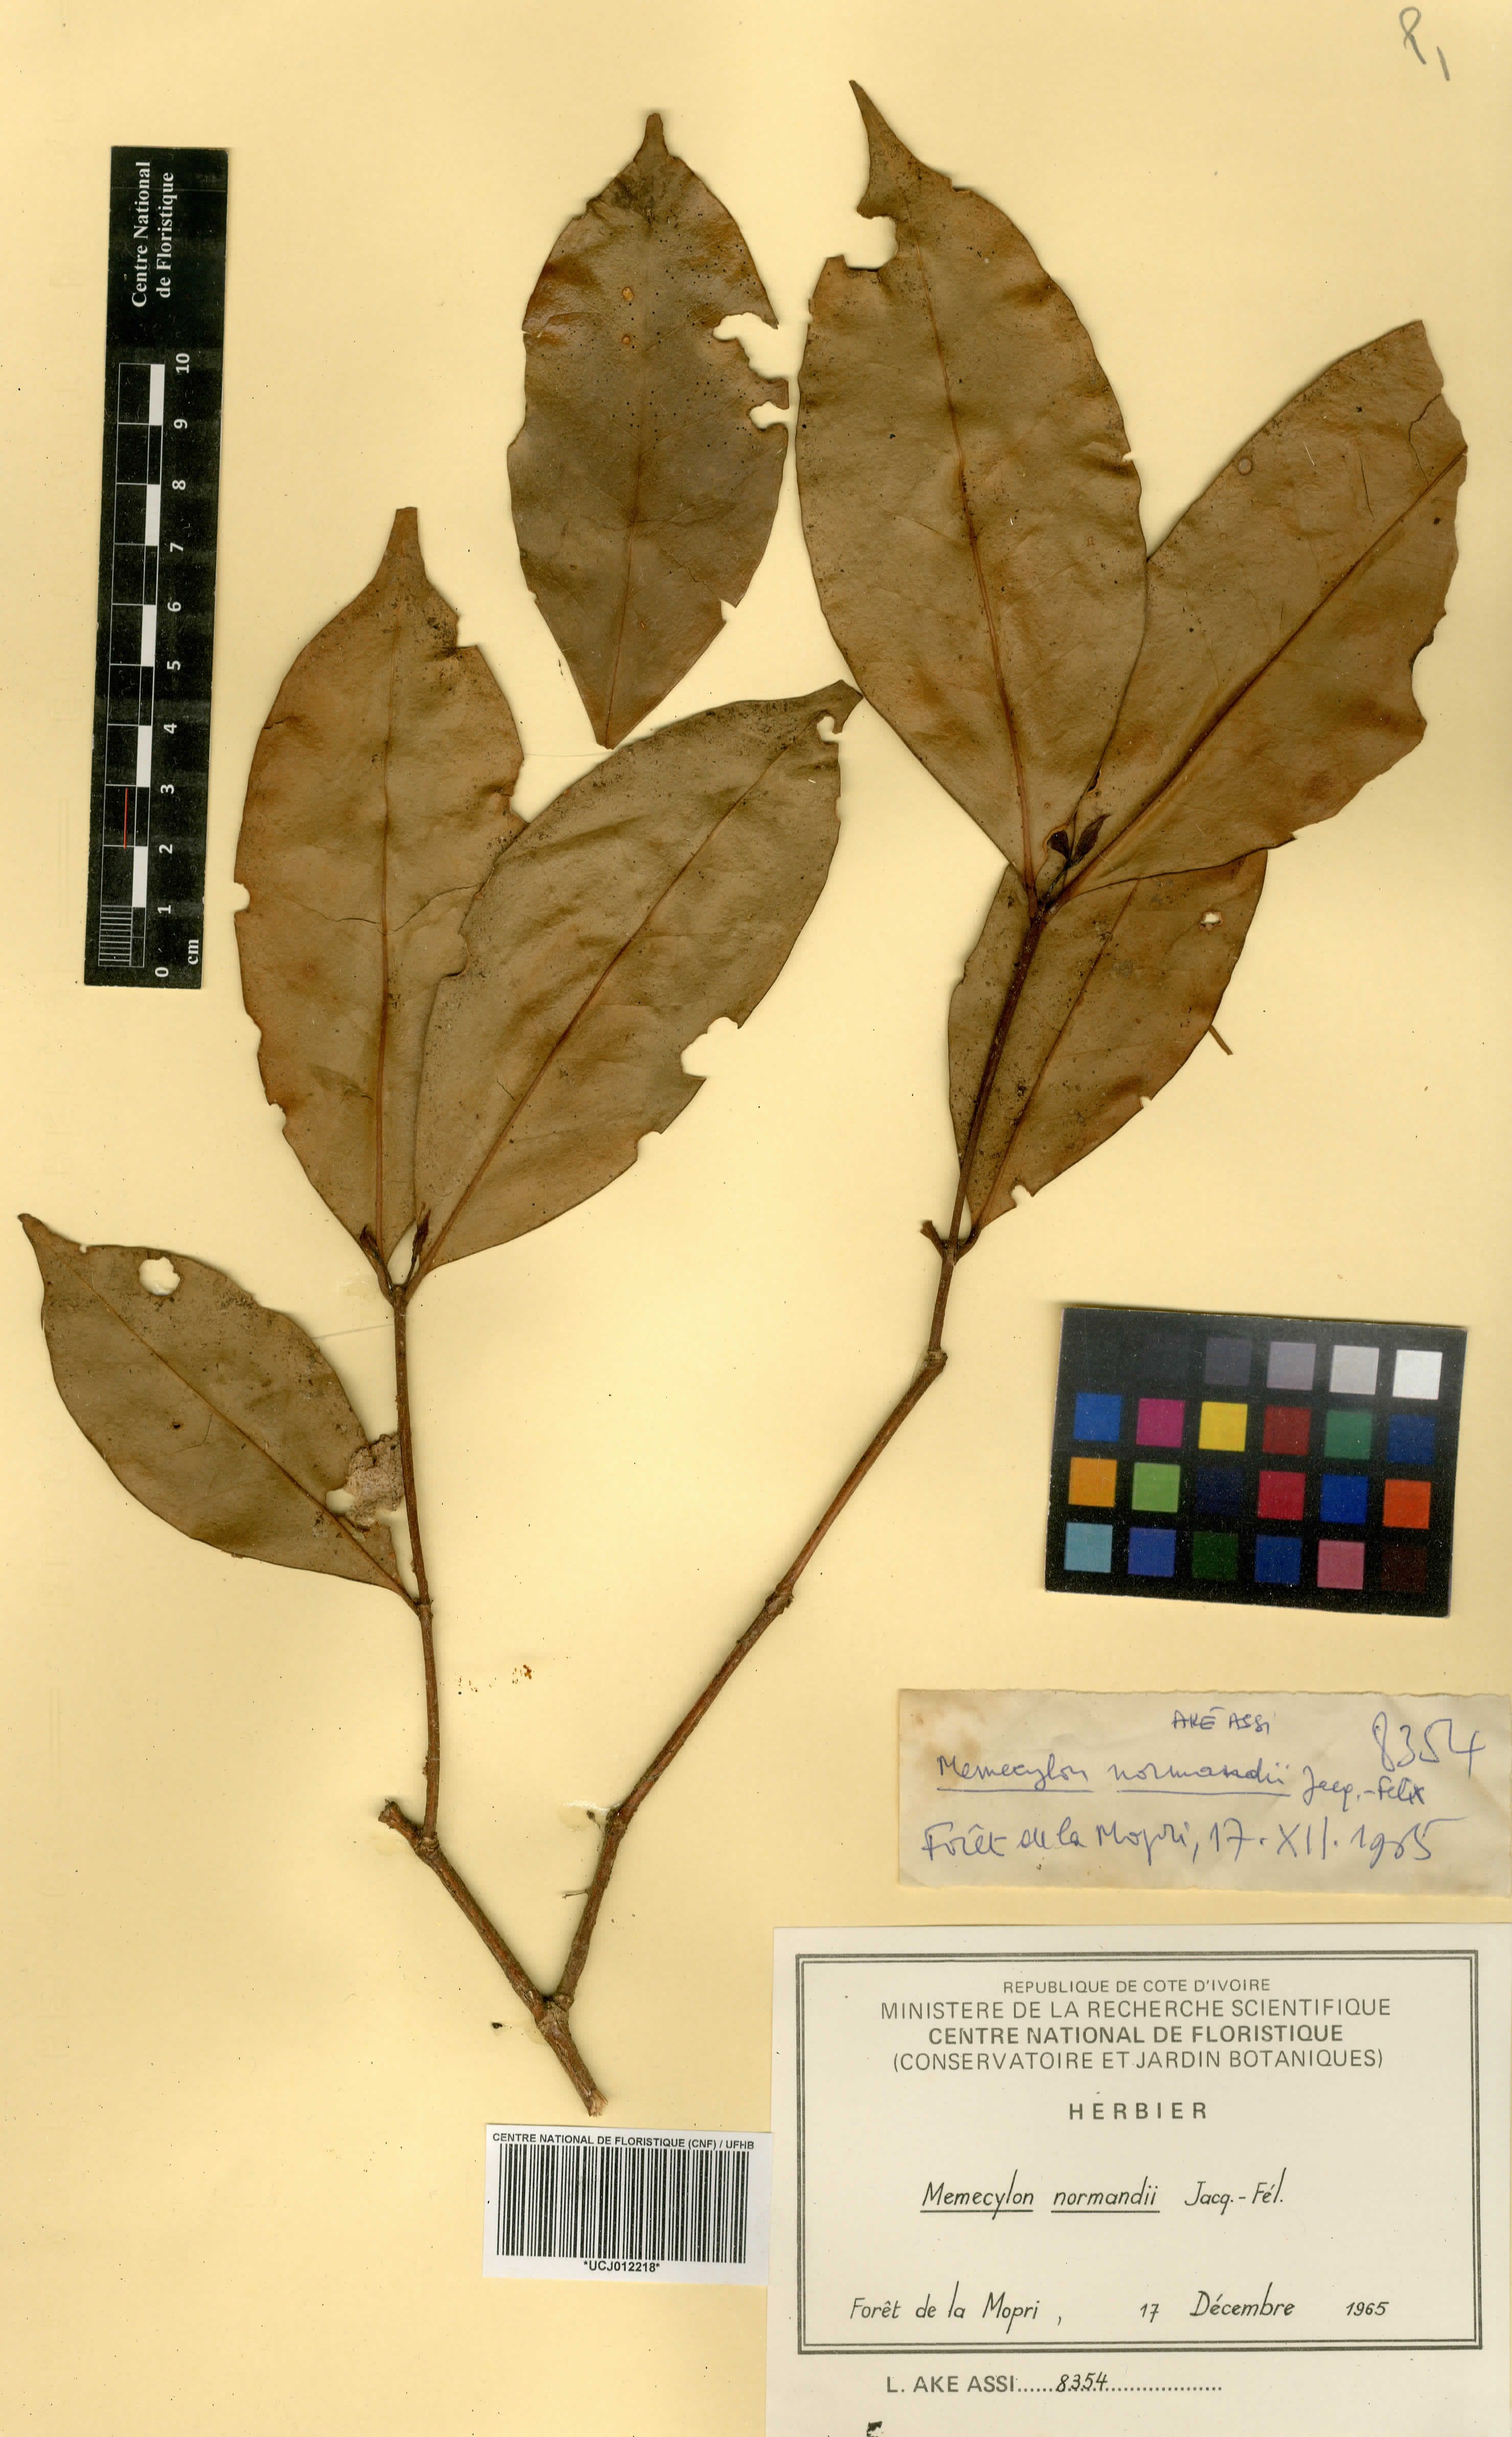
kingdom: Plantae
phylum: Tracheophyta
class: Magnoliopsida
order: Myrtales
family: Melastomataceae
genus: Memecylon
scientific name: Memecylon normandii
